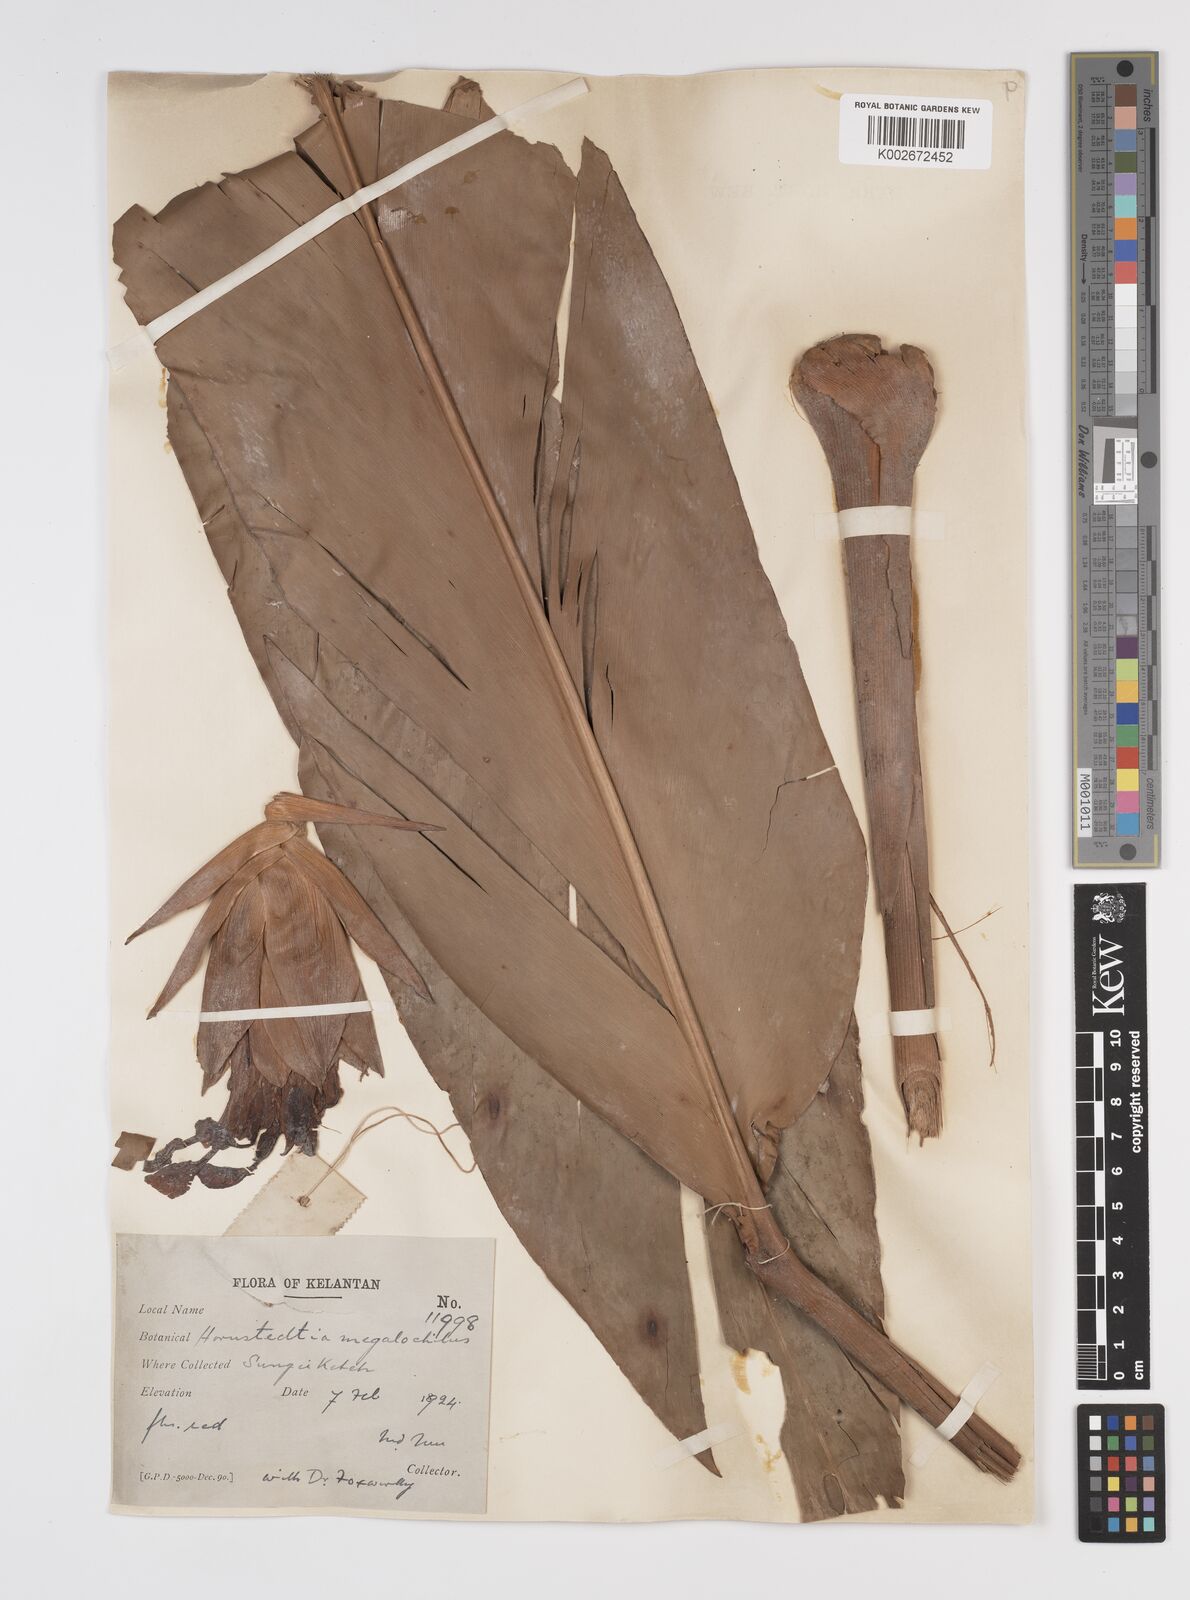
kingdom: Plantae
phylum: Tracheophyta
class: Liliopsida
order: Zingiberales
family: Zingiberaceae
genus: Etlingera
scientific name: Etlingera littoralis
